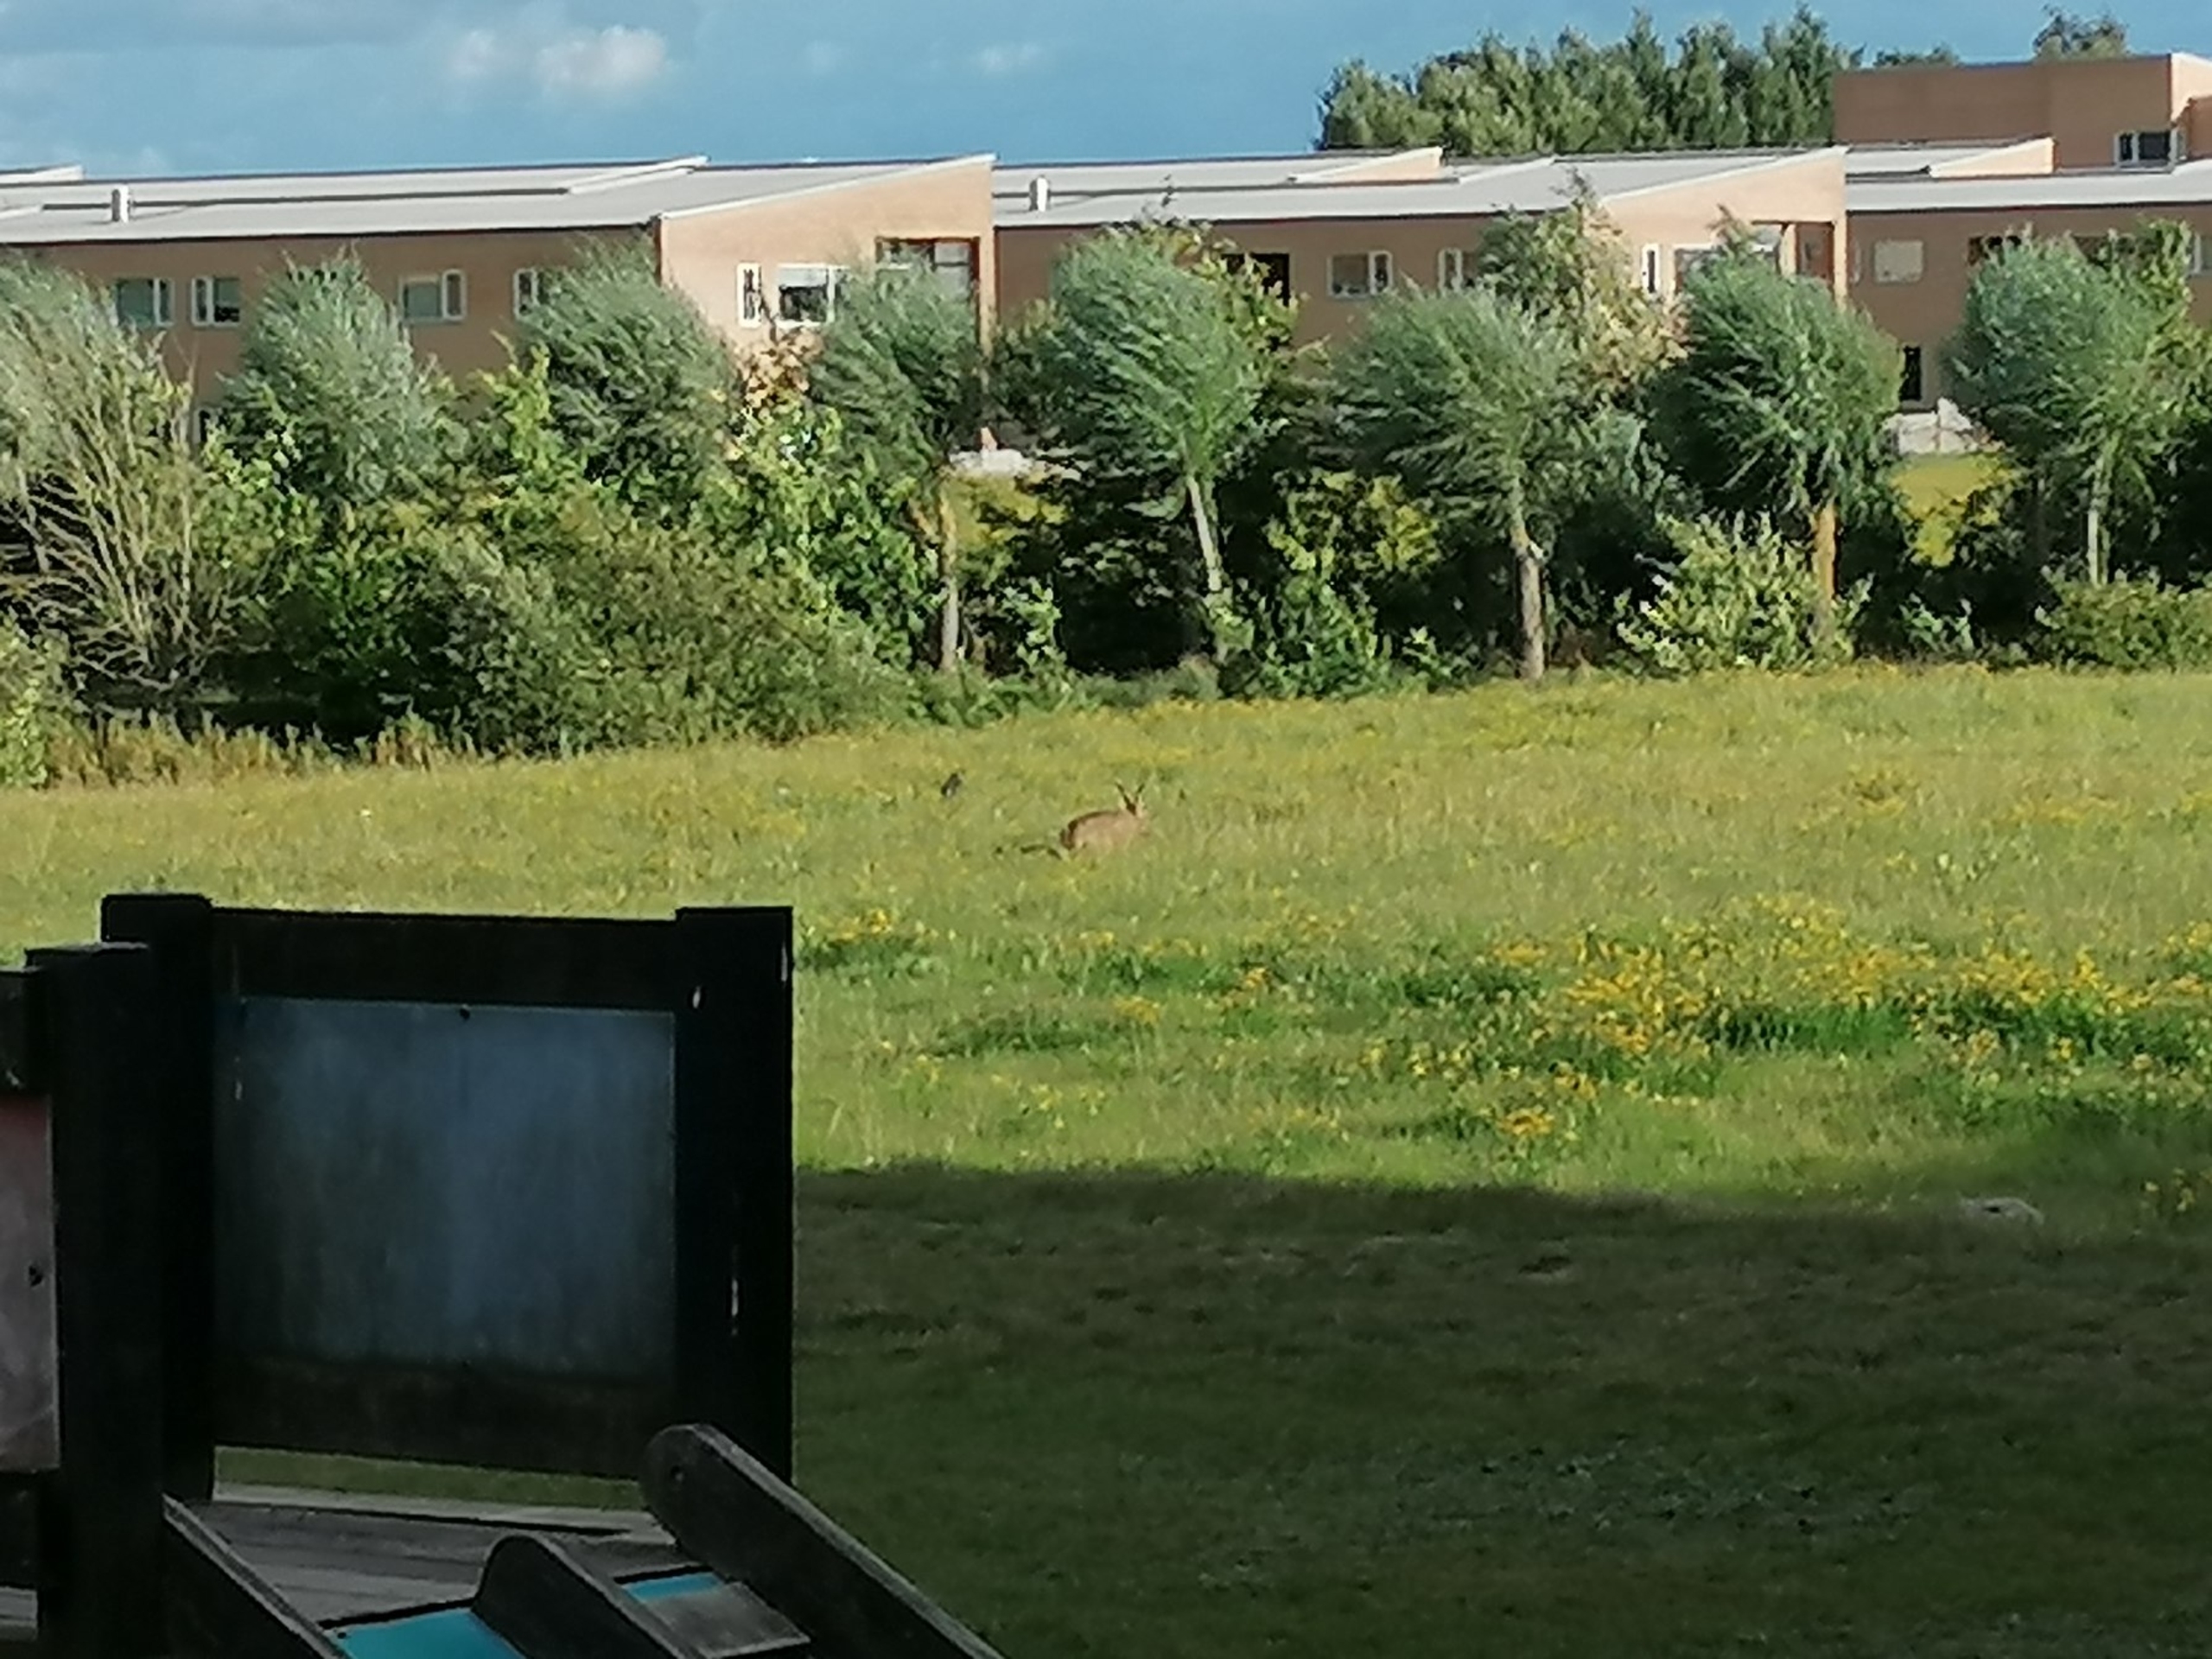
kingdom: Animalia
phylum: Chordata
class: Mammalia
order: Lagomorpha
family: Leporidae
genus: Lepus
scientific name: Lepus europaeus
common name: Hare
